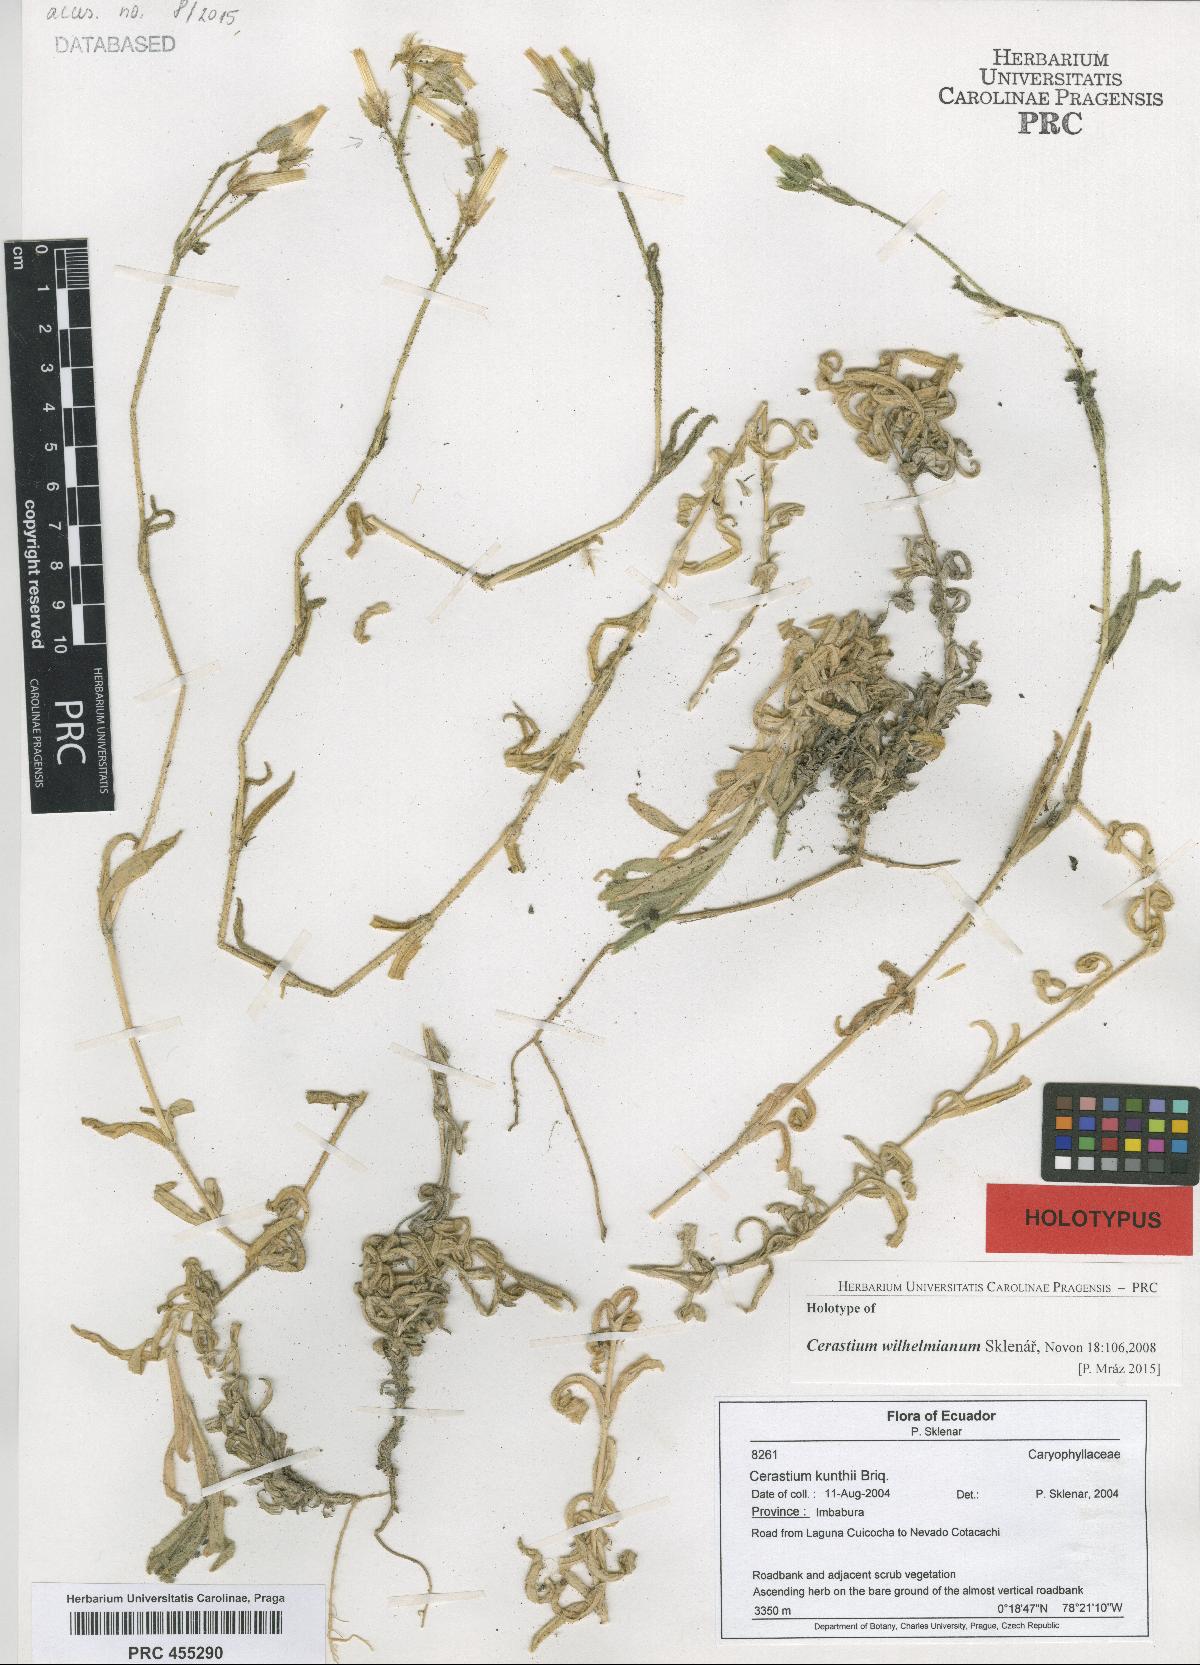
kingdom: Plantae
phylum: Tracheophyta
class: Magnoliopsida
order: Caryophyllales
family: Caryophyllaceae
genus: Cerastium
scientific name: Cerastium kunthii
